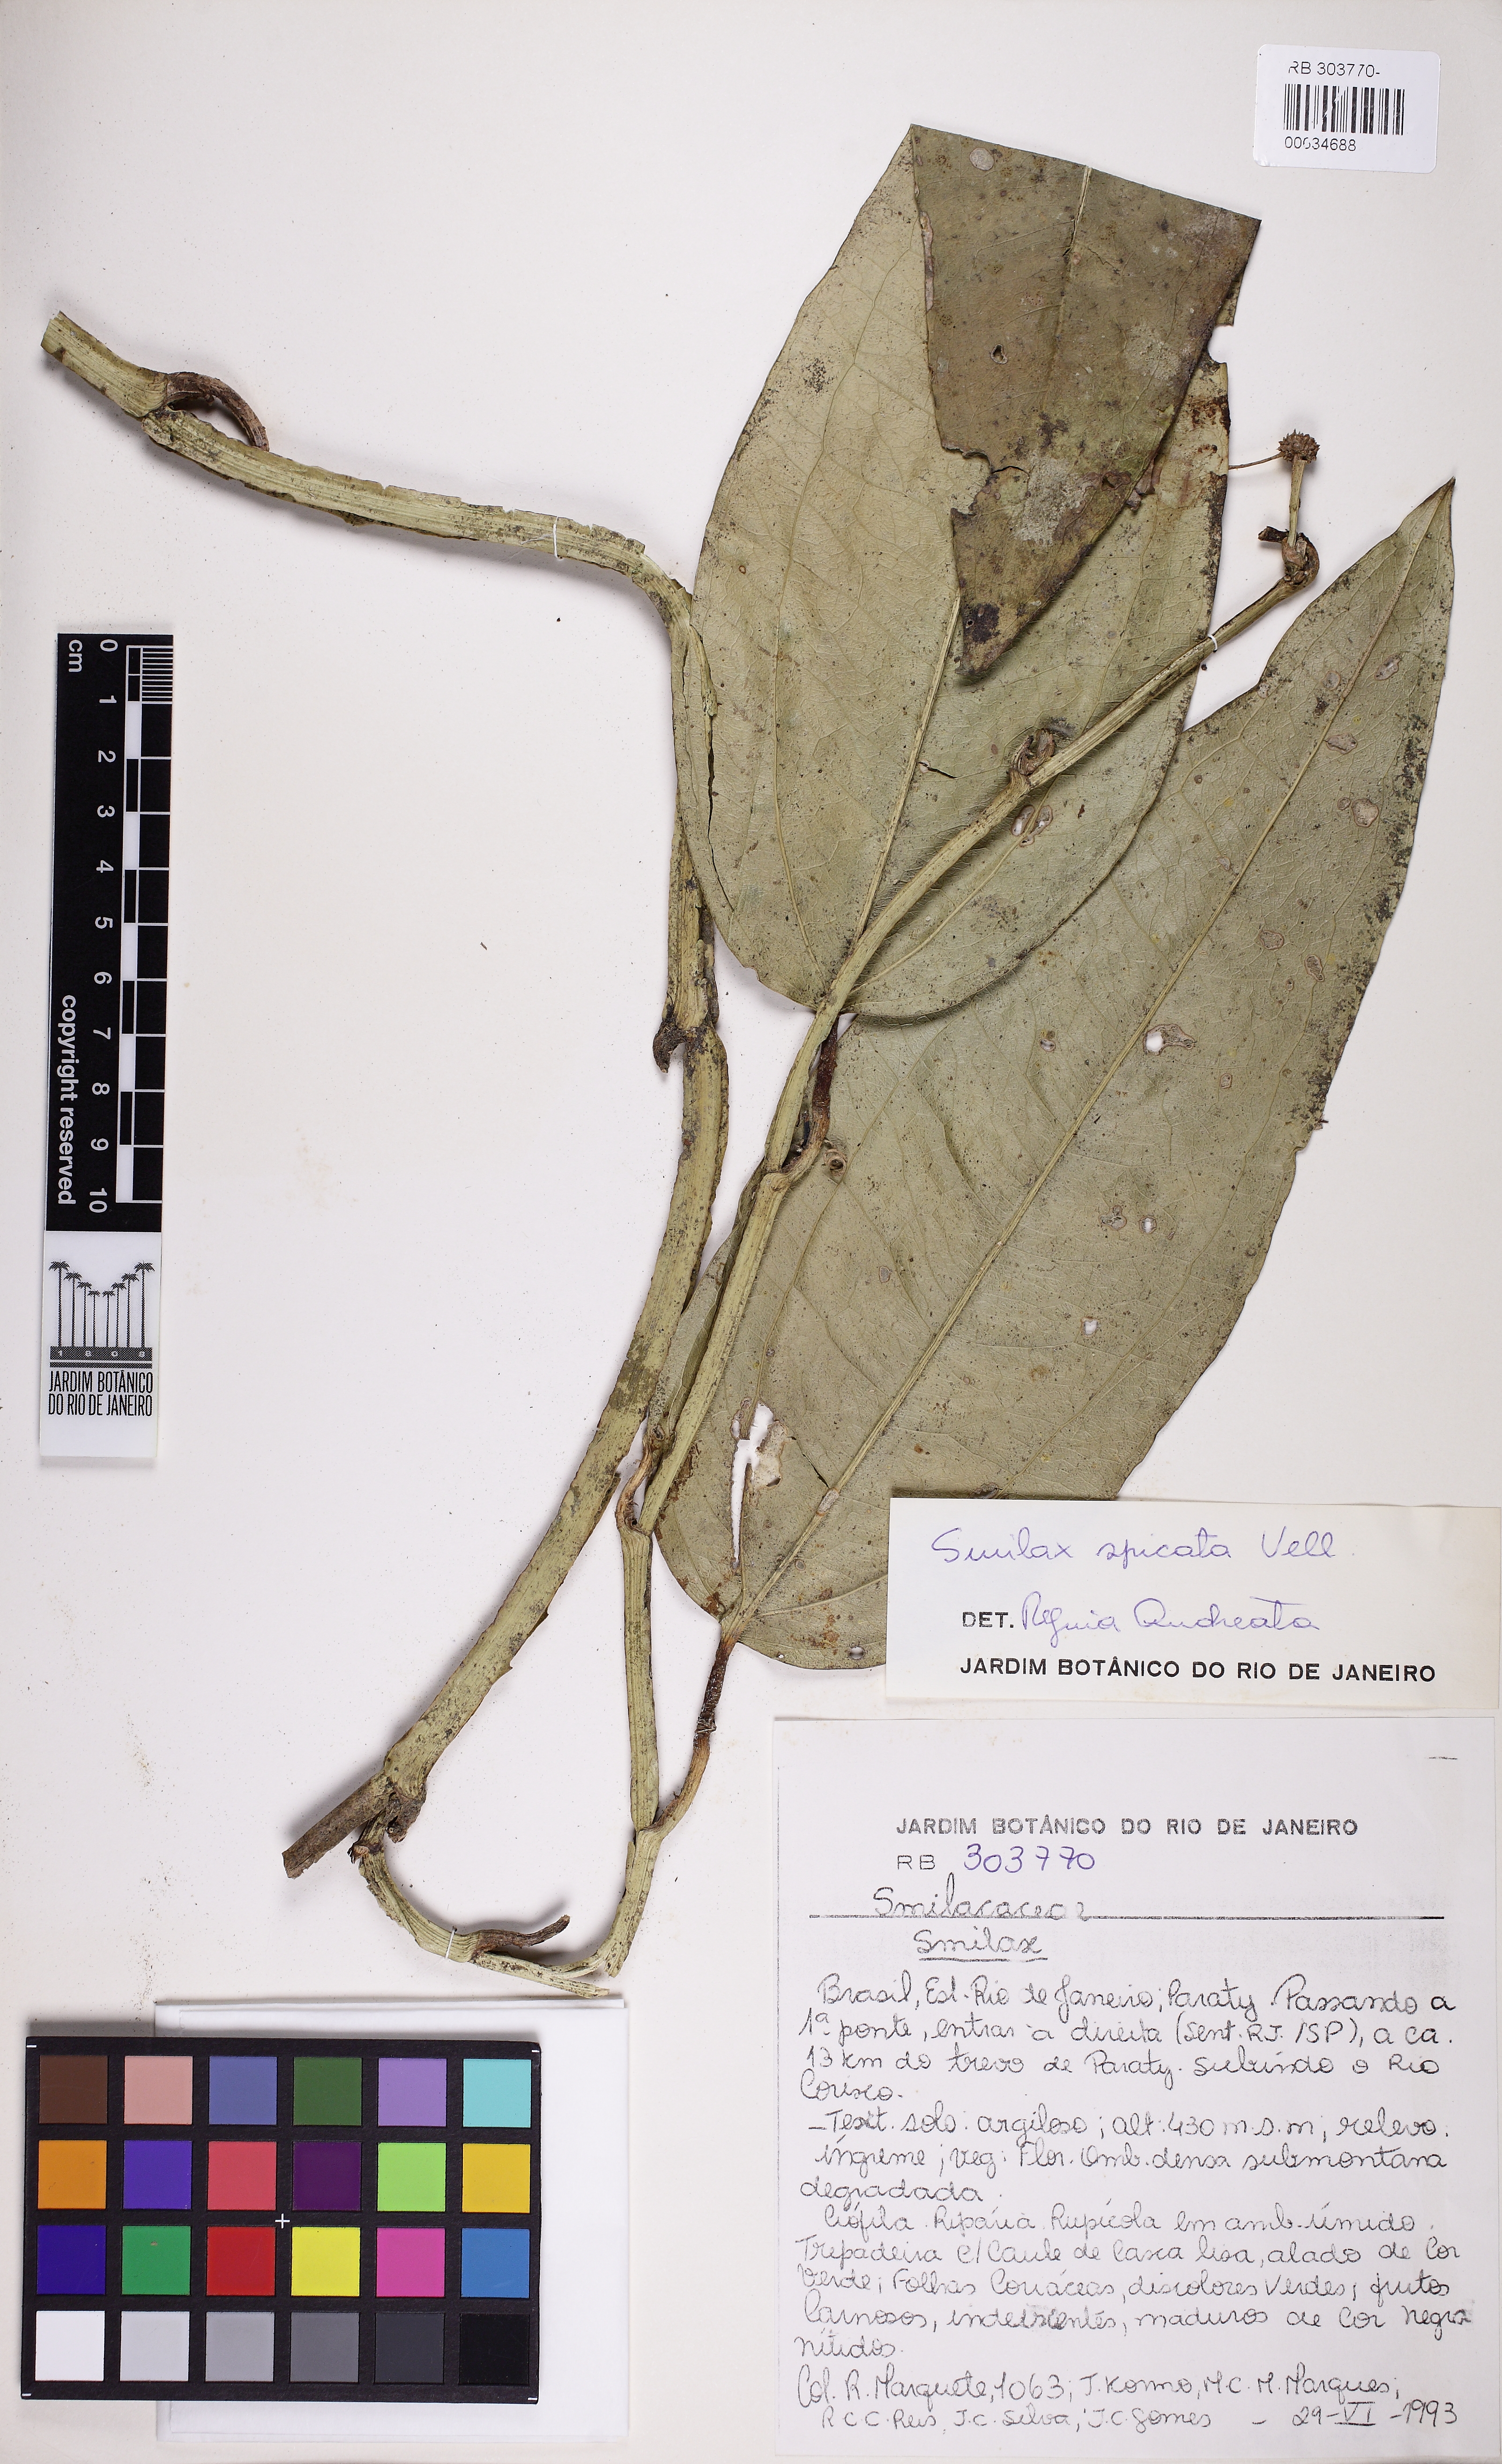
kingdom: Plantae
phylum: Tracheophyta
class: Liliopsida
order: Liliales
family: Smilacaceae
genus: Smilax
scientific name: Smilax spicata
